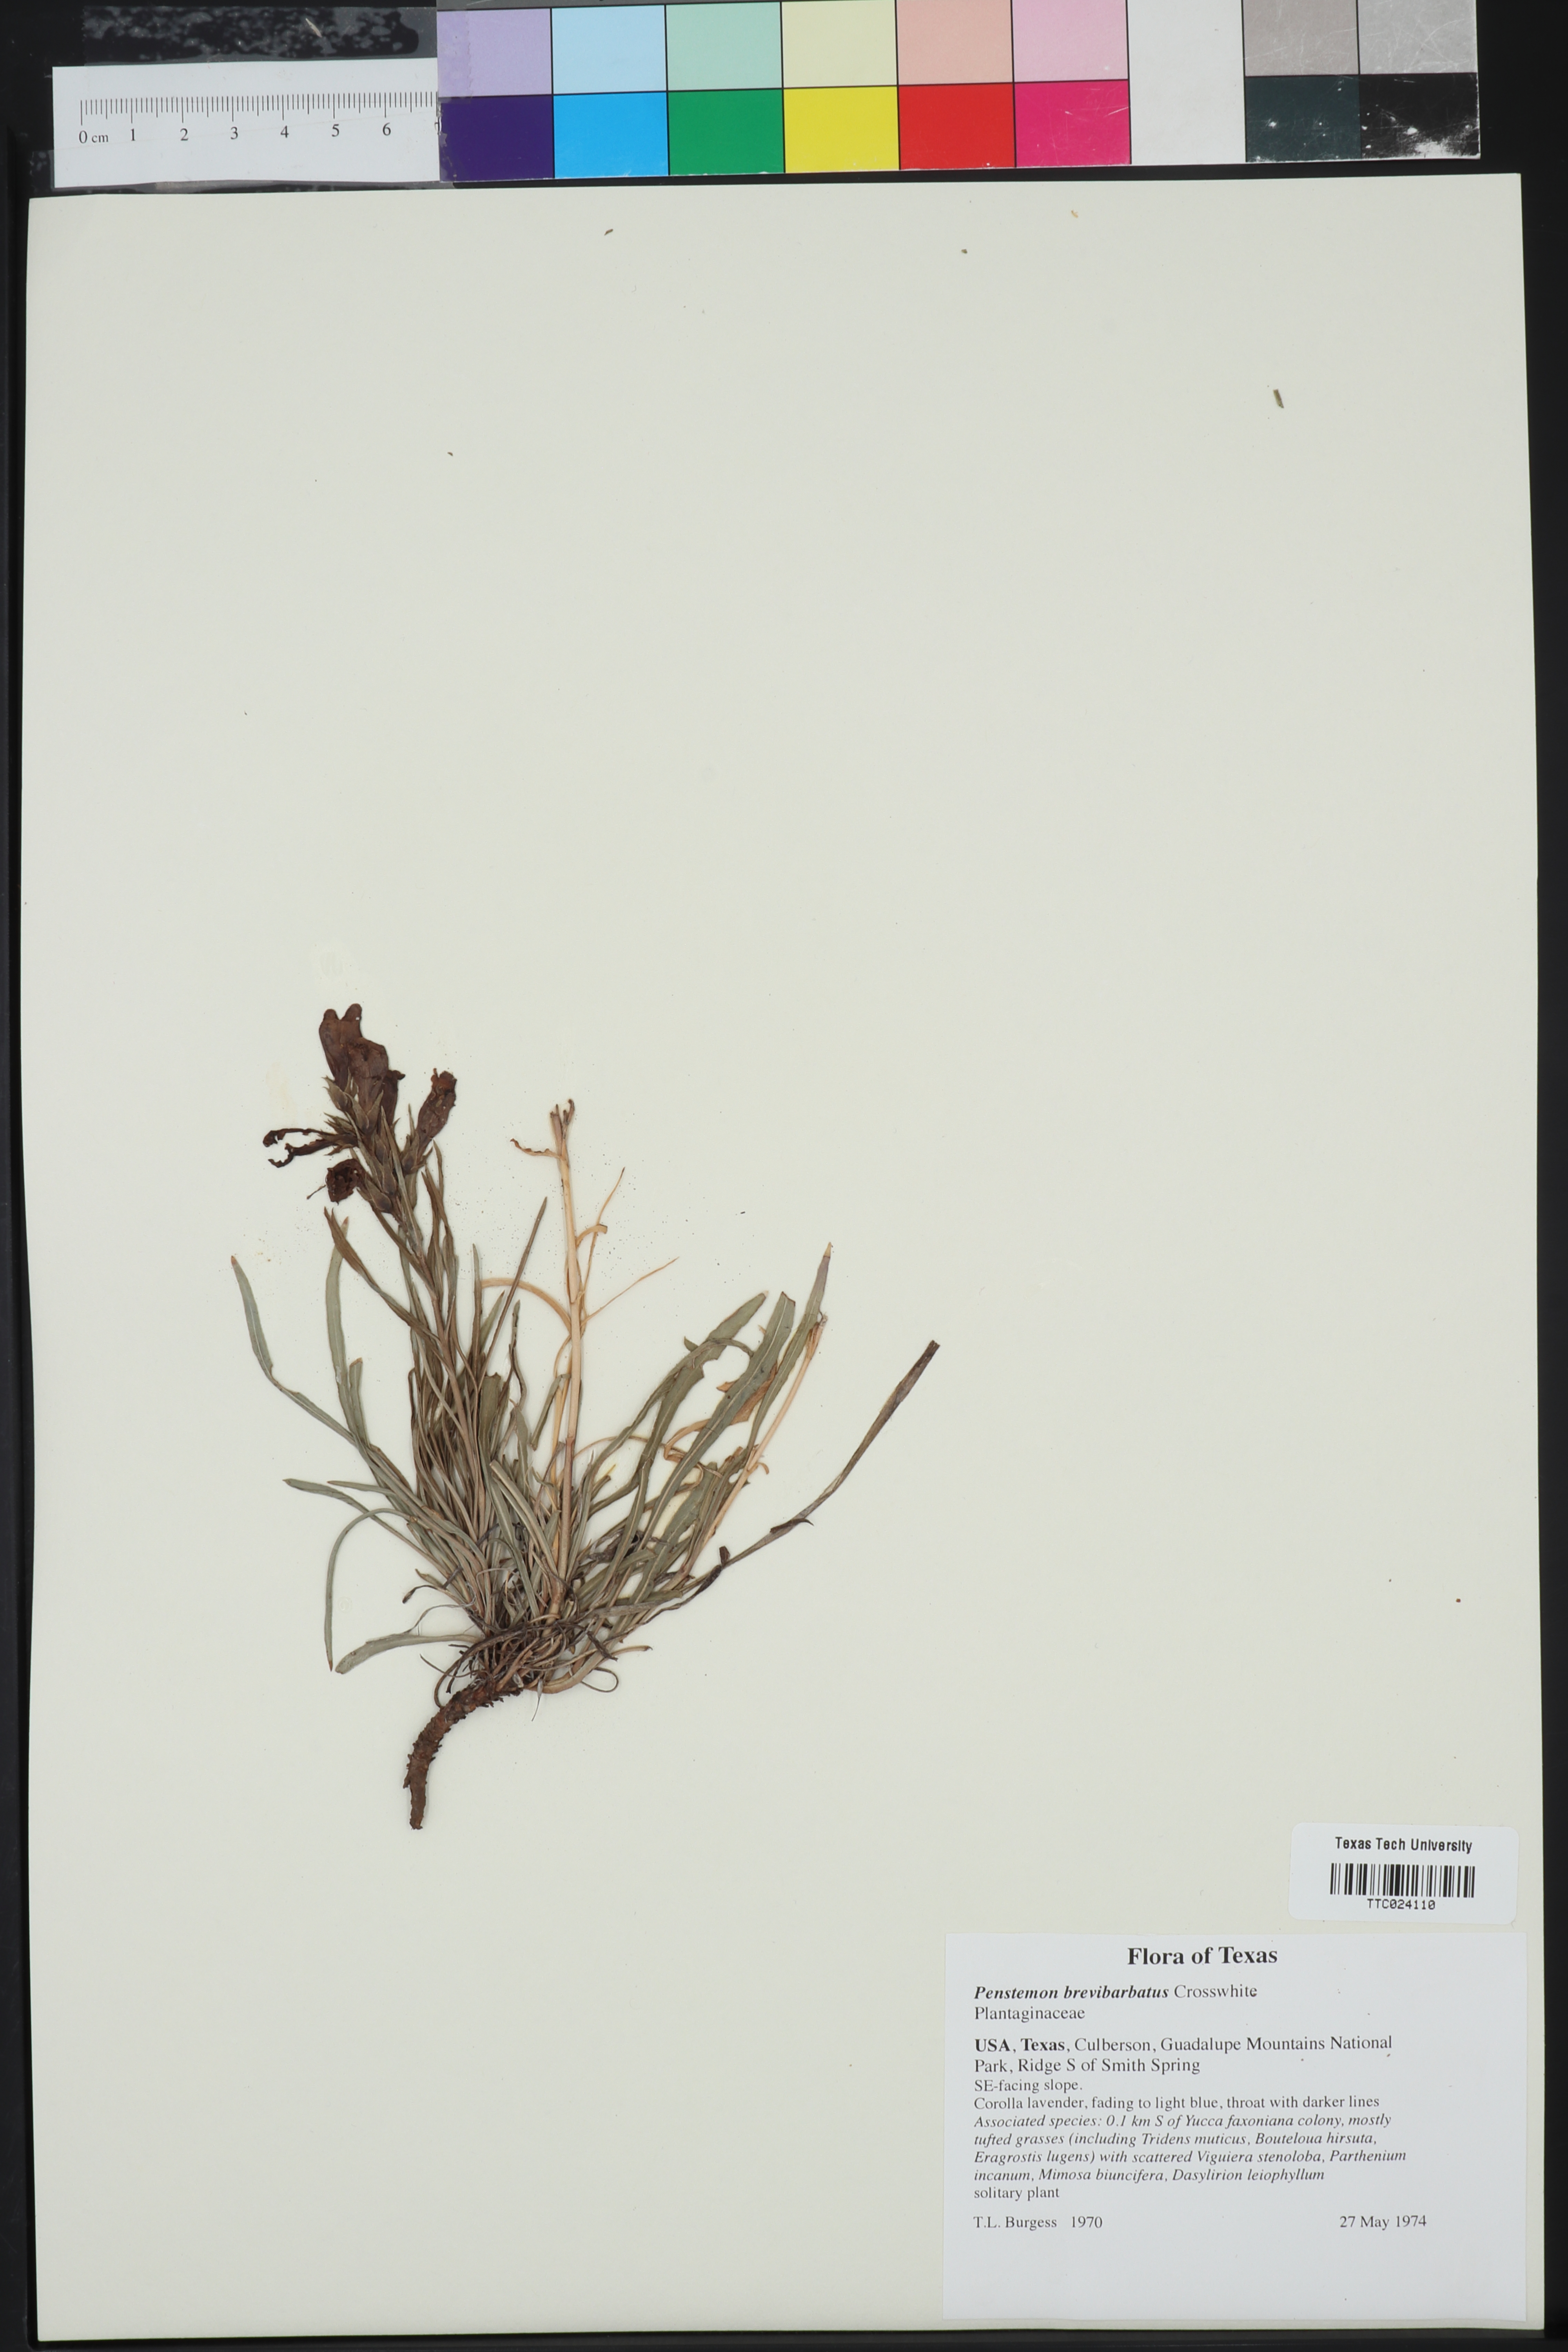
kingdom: Plantae
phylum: Tracheophyta
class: Magnoliopsida
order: Lamiales
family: Plantaginaceae
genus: Penstemon
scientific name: Penstemon brevibarbatus
